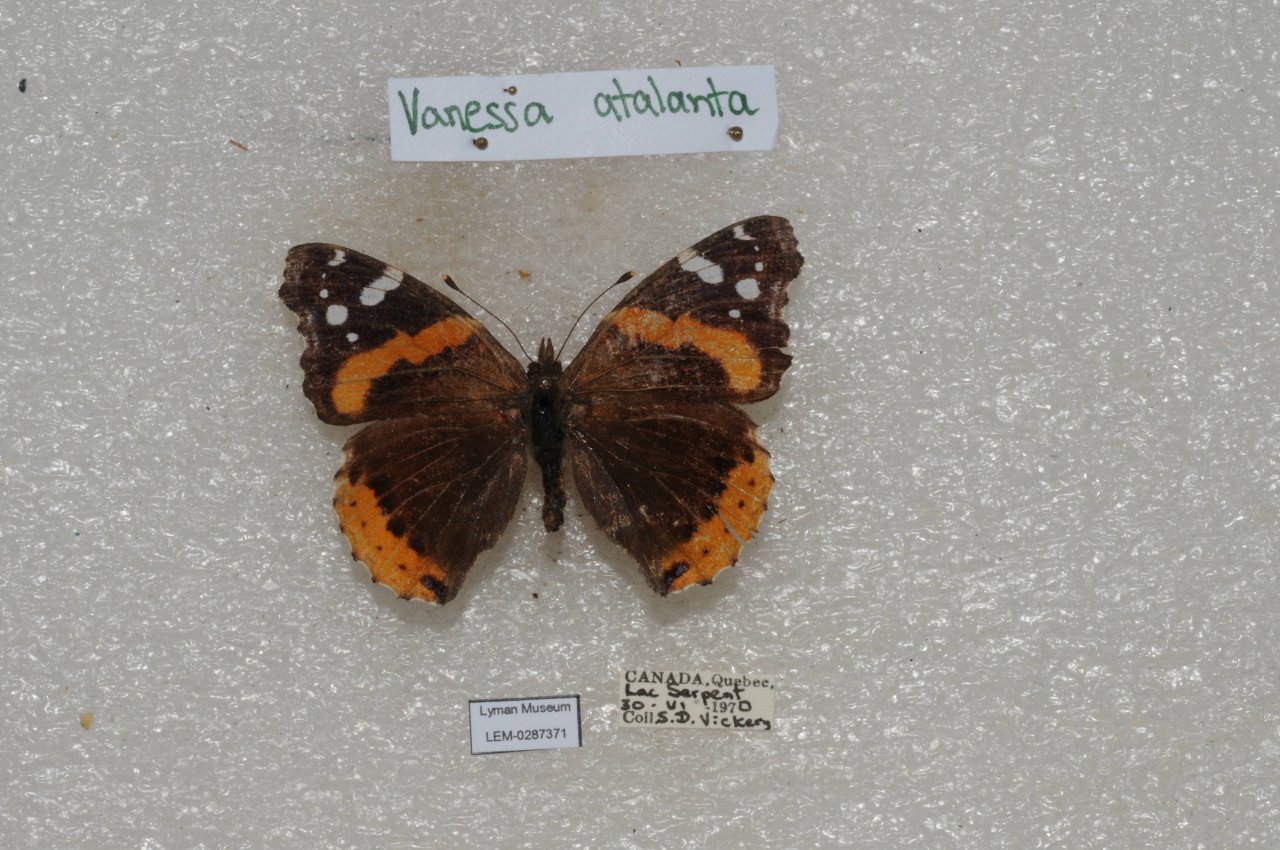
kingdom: Animalia
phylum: Arthropoda
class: Insecta
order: Lepidoptera
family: Nymphalidae
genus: Vanessa
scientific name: Vanessa atalanta
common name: Red Admiral
